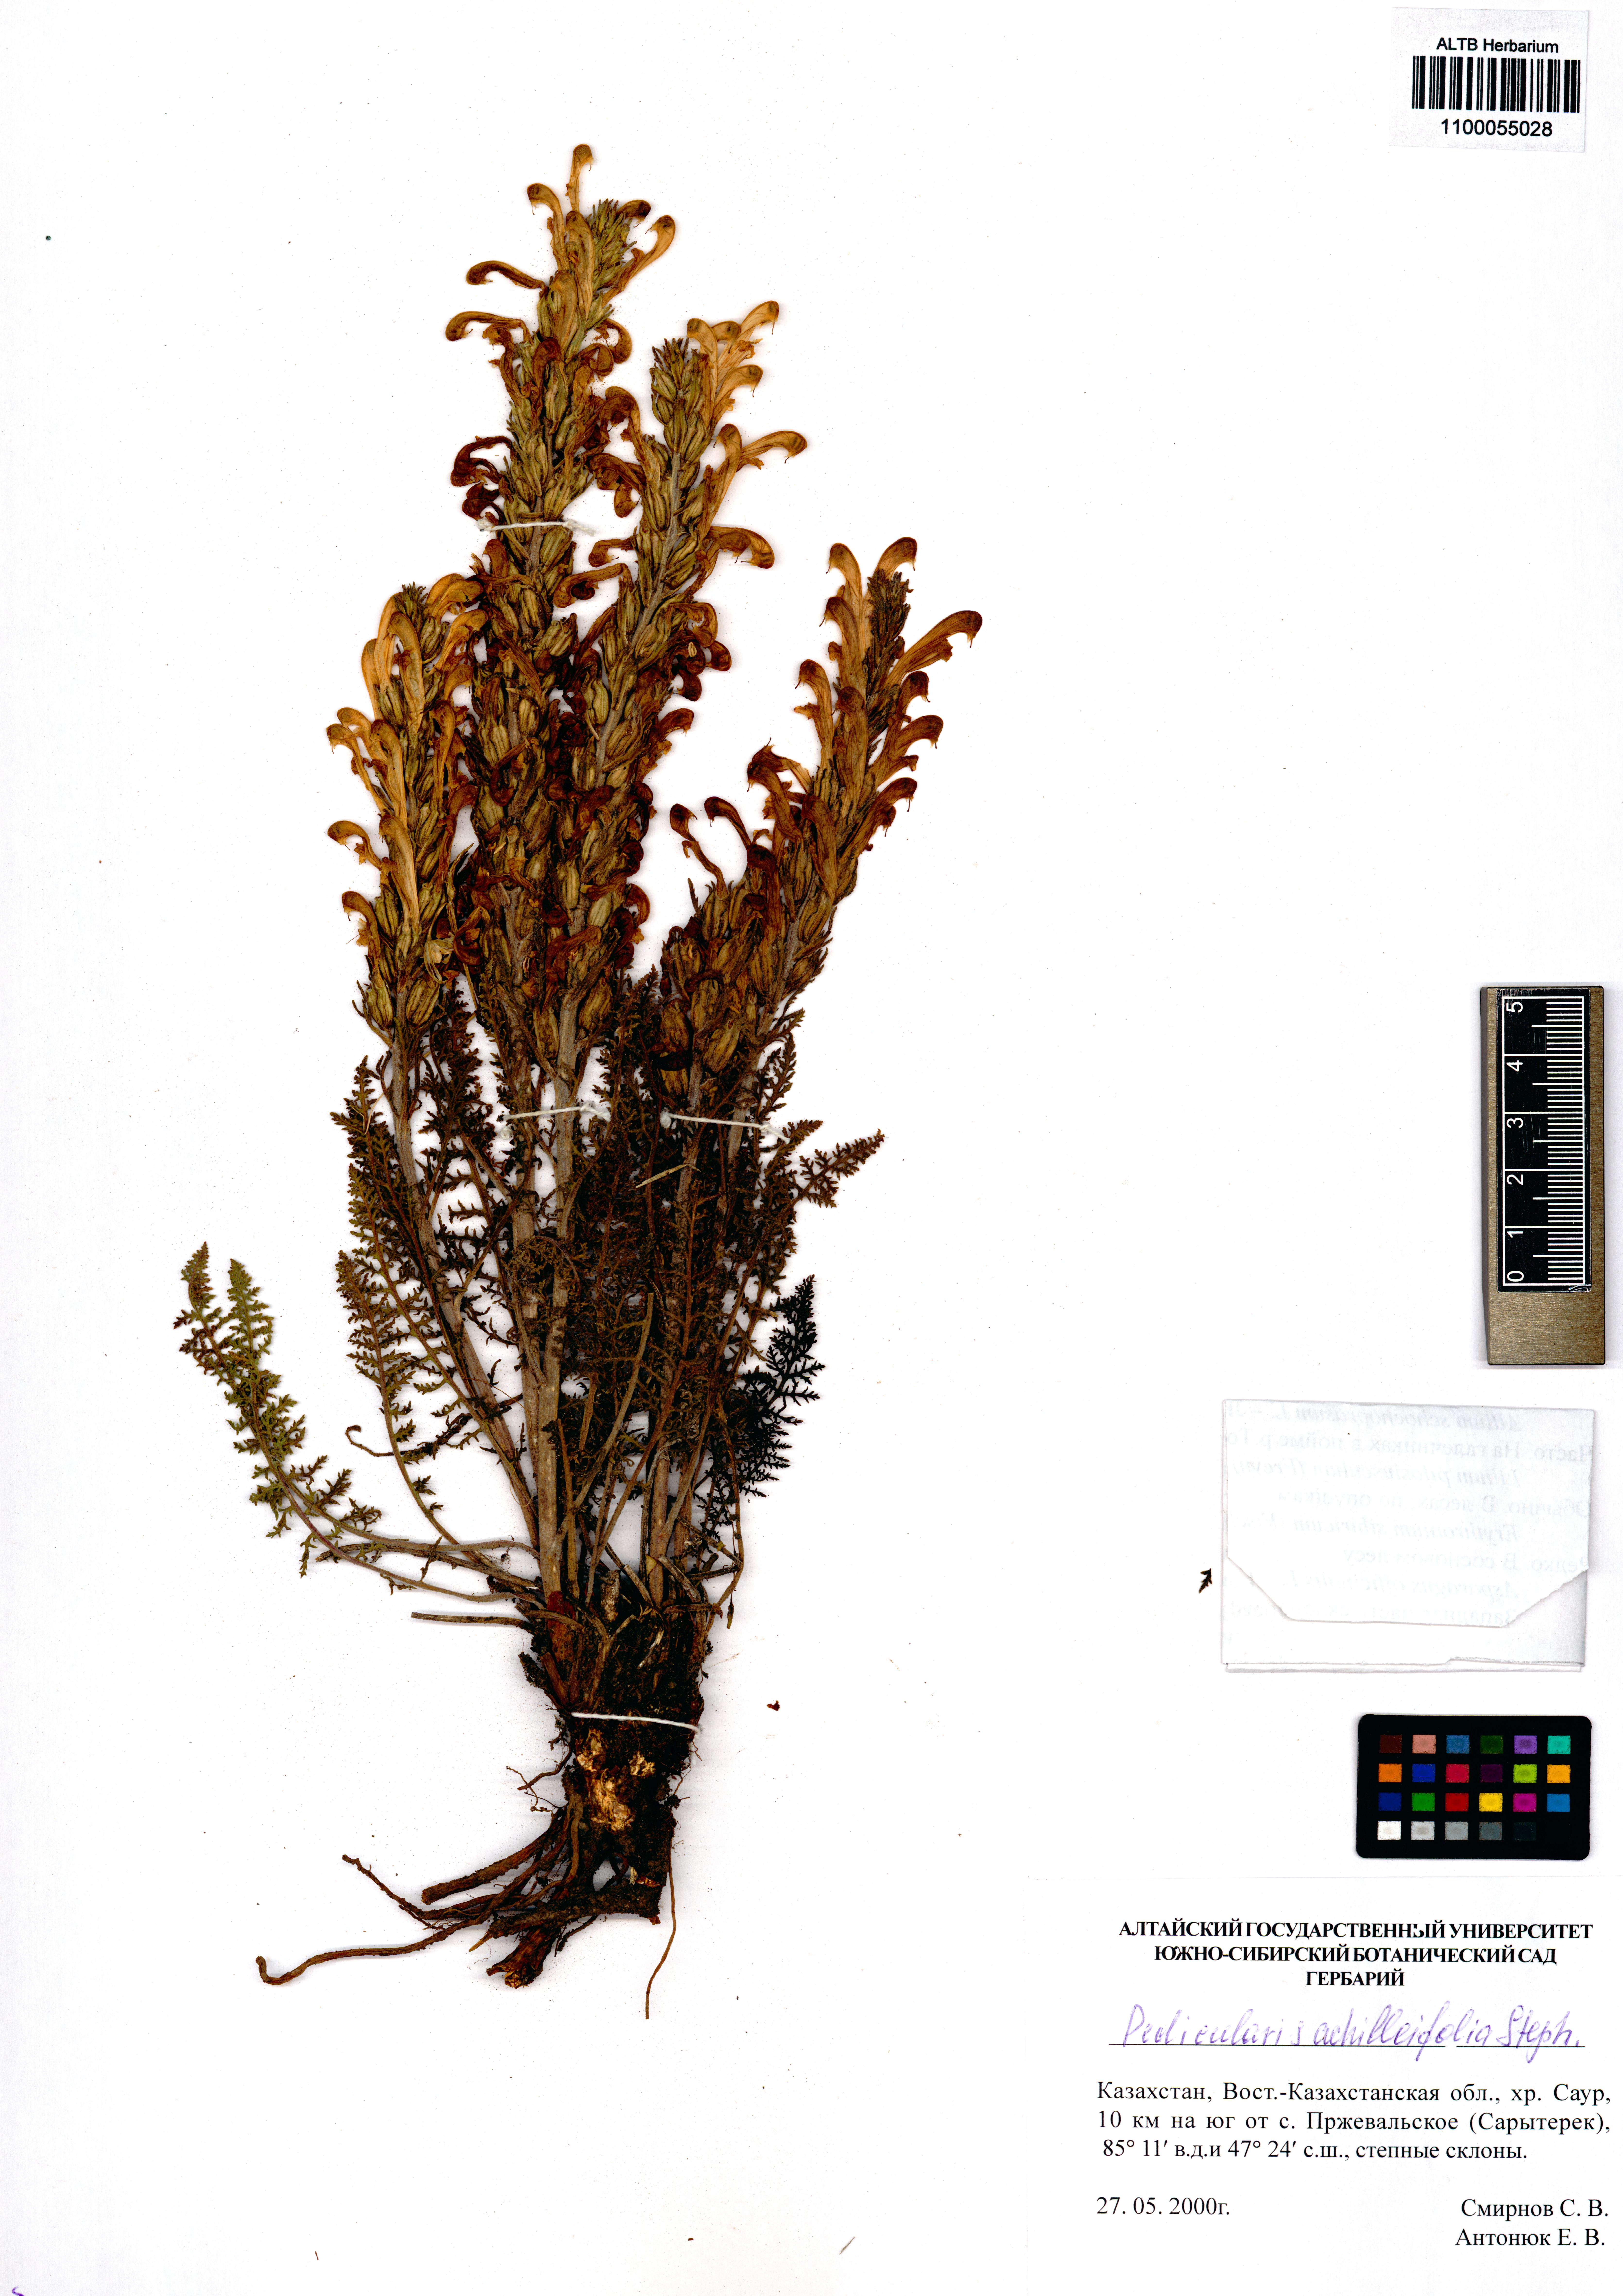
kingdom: Plantae
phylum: Tracheophyta
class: Magnoliopsida
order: Lamiales
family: Orobanchaceae
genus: Pedicularis
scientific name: Pedicularis achilleifolia
